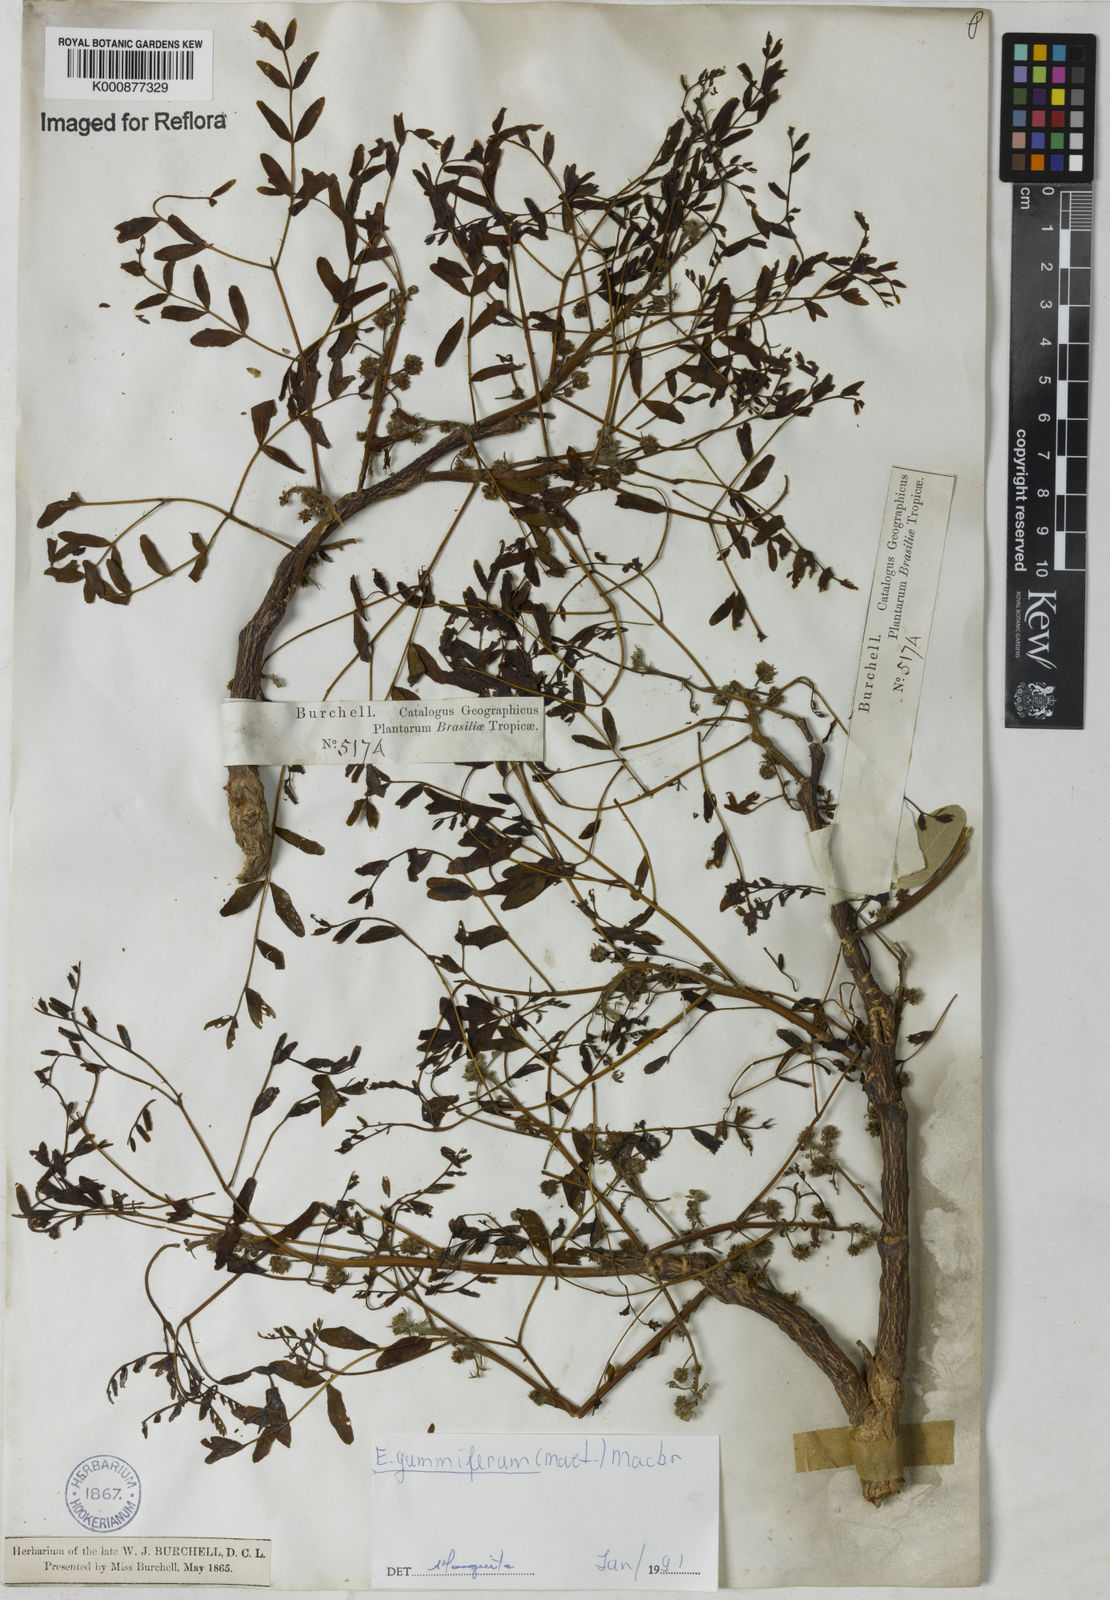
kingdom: Plantae
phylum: Tracheophyta
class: Magnoliopsida
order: Fabales
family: Fabaceae
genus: Enterolobium
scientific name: Enterolobium gummiferum
